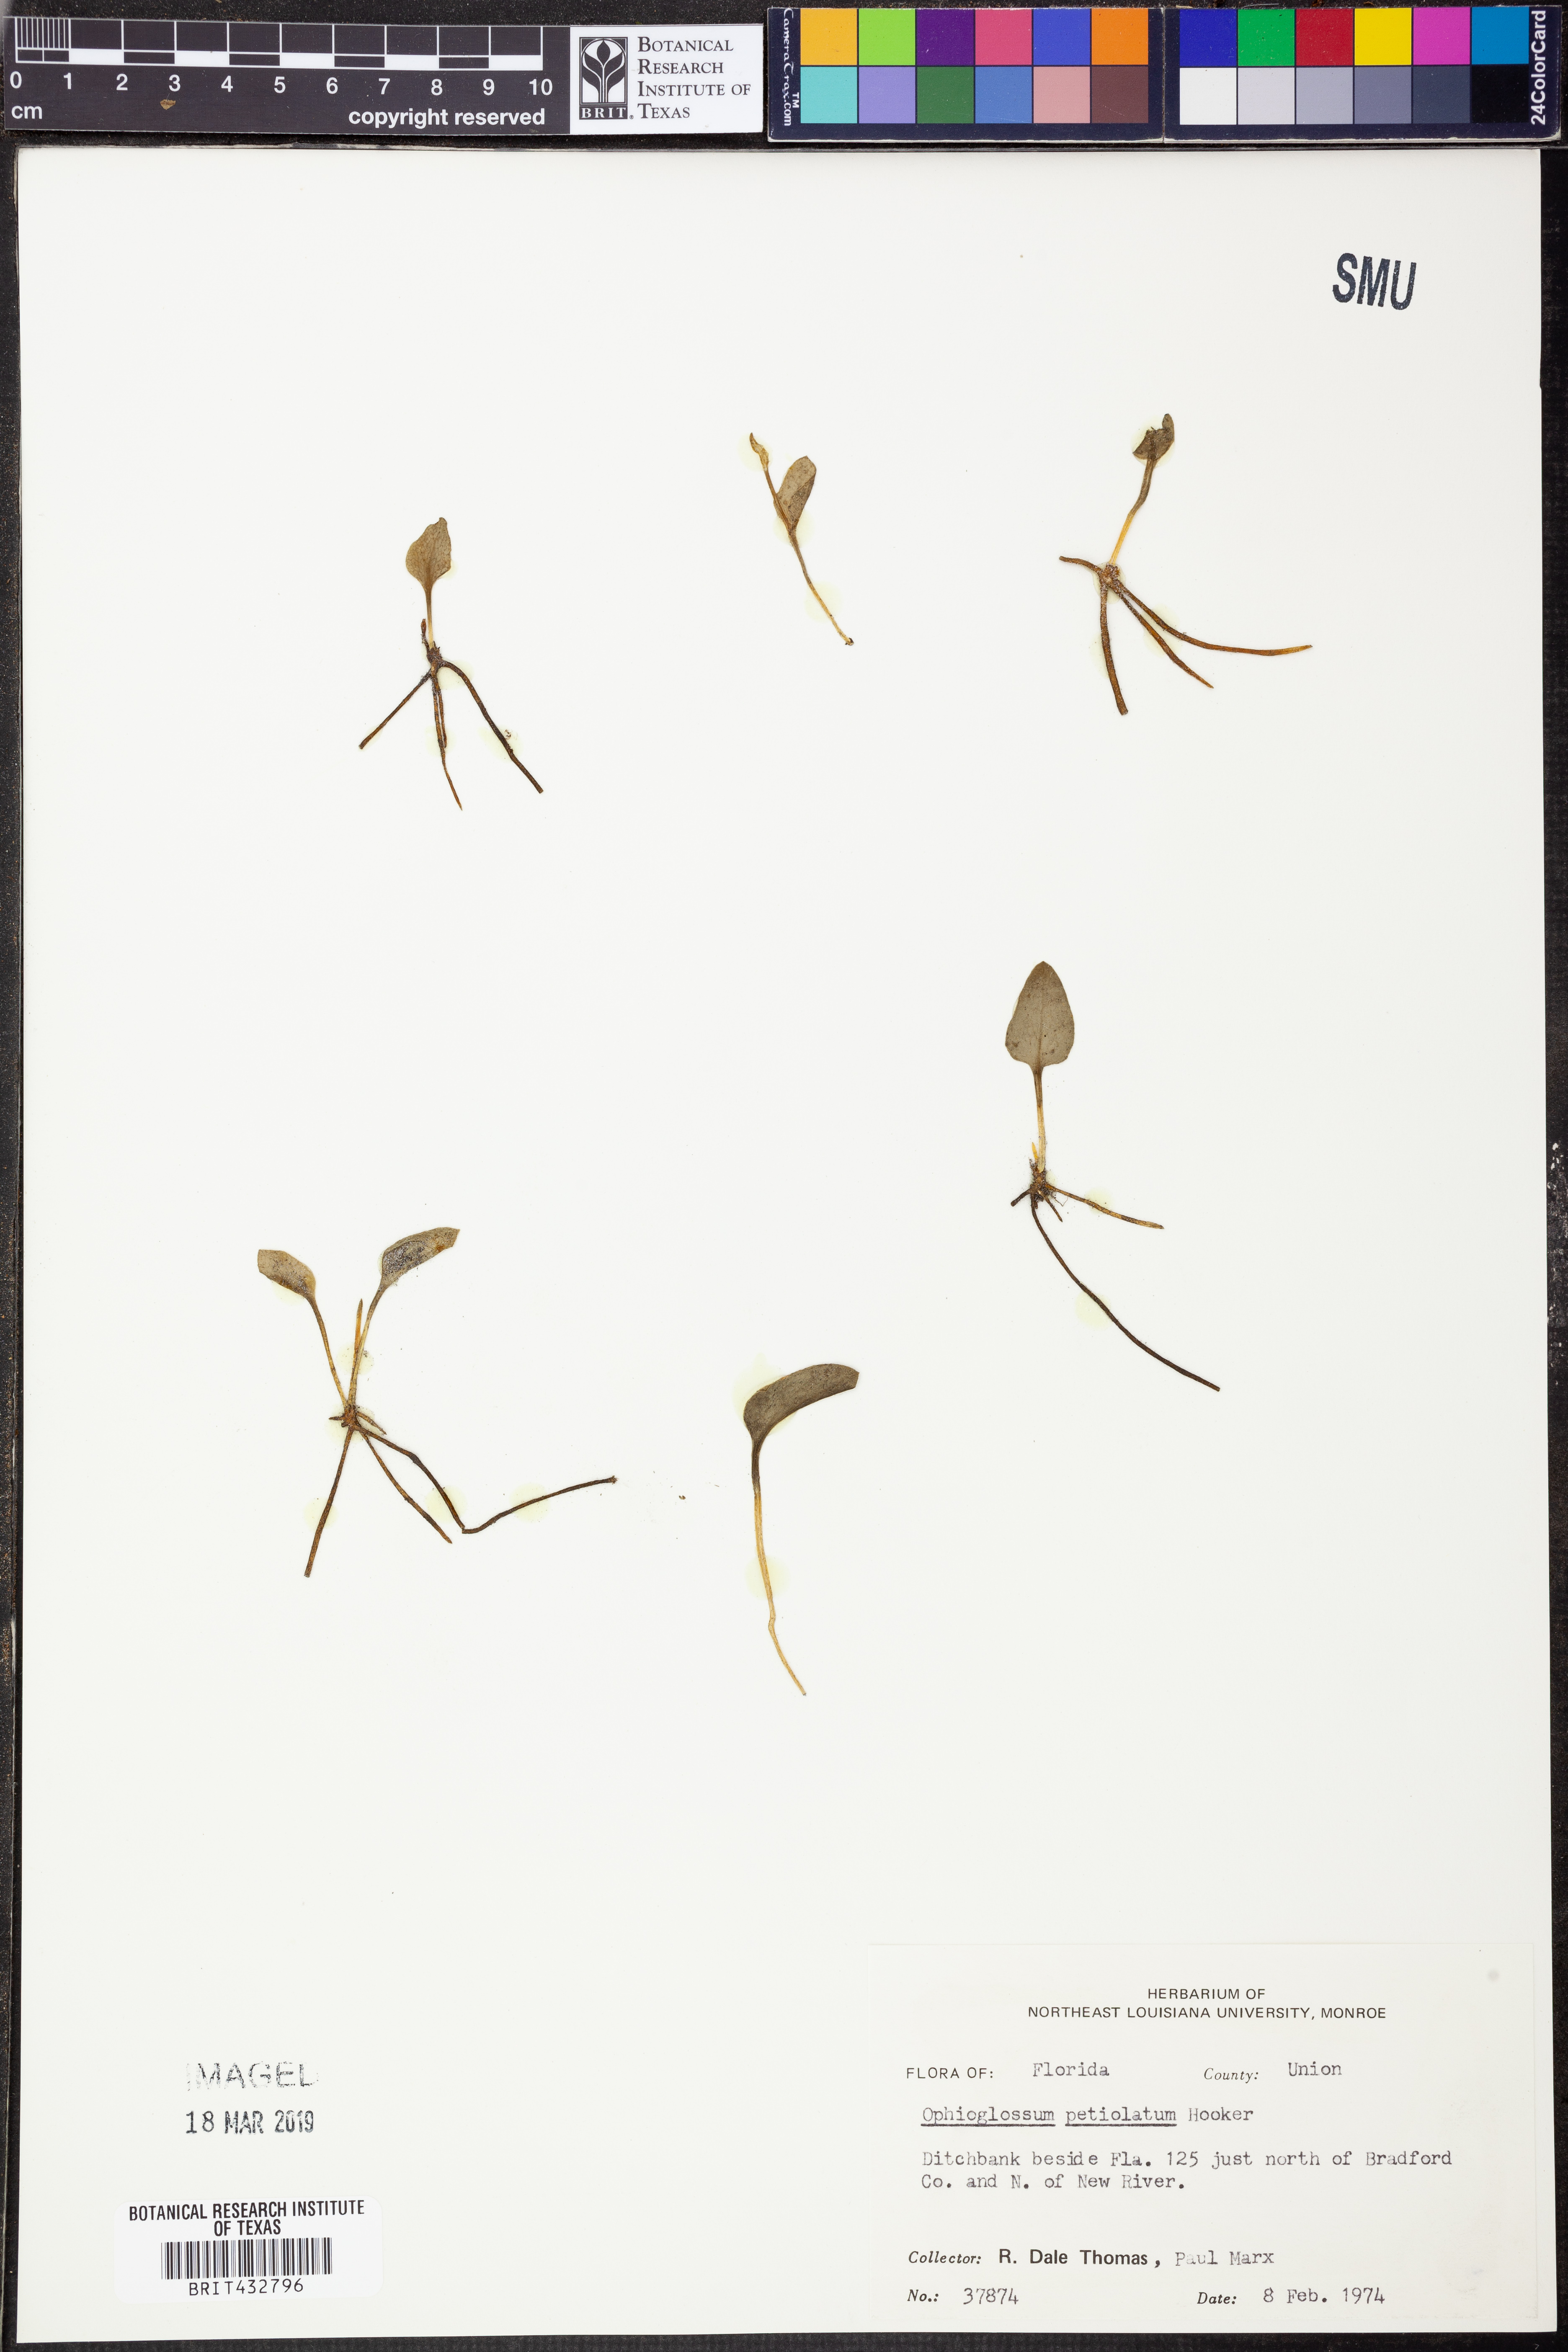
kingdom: Plantae
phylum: Tracheophyta
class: Polypodiopsida
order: Ophioglossales
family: Ophioglossaceae
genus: Ophioglossum
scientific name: Ophioglossum petiolatum
